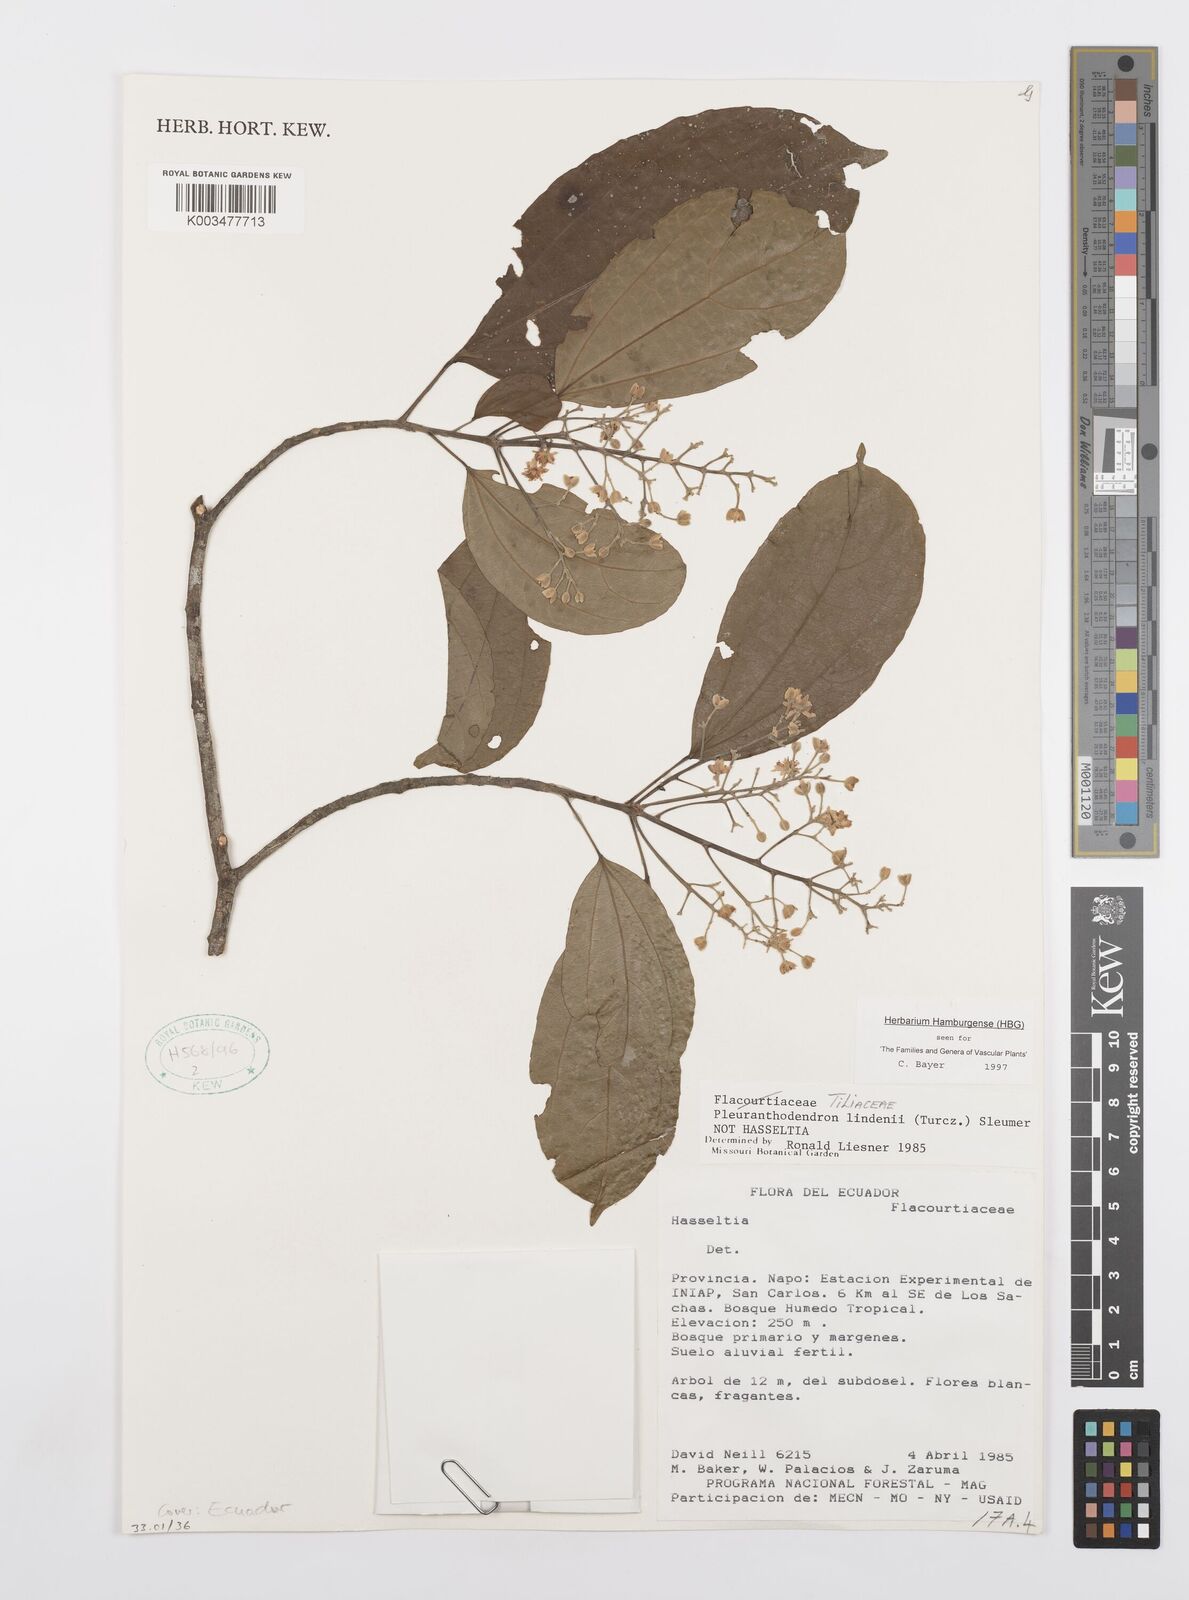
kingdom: Plantae
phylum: Tracheophyta
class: Magnoliopsida
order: Malpighiales
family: Salicaceae
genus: Pleuranthodendron
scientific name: Pleuranthodendron lindenii
